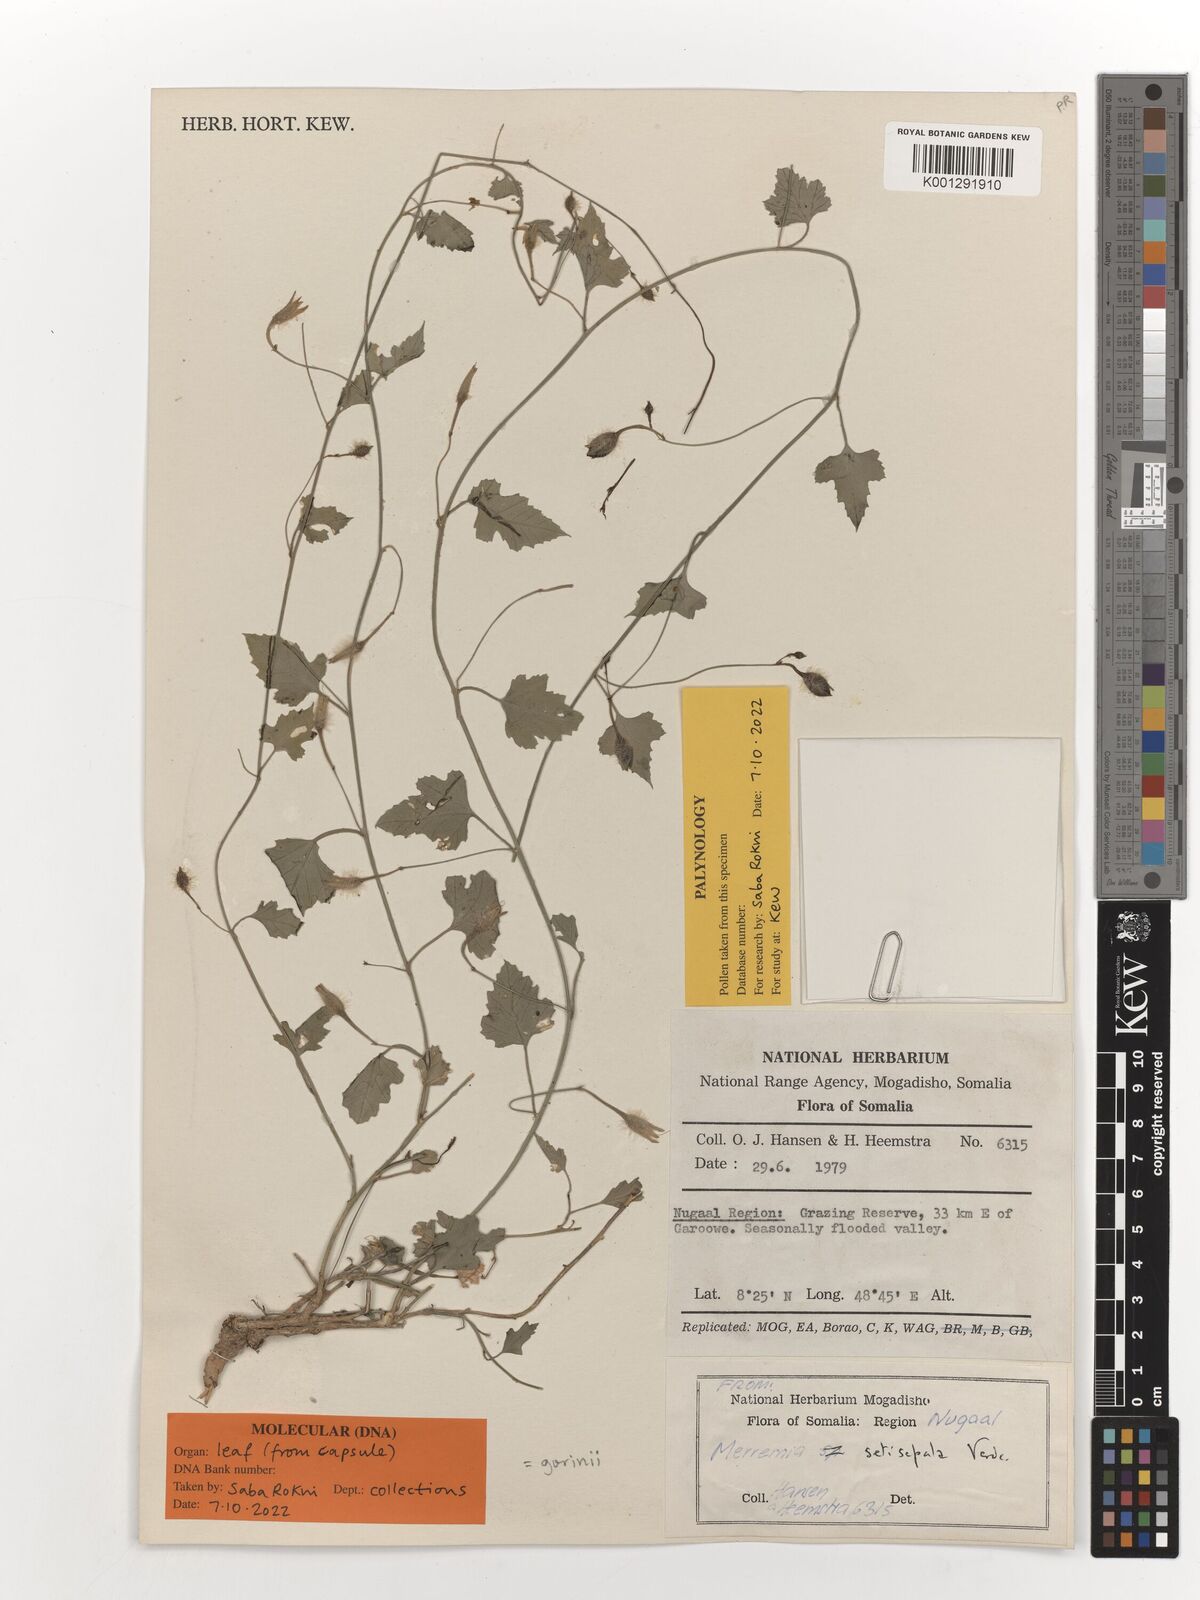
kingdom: Plantae
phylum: Tracheophyta
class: Magnoliopsida
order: Solanales
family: Convolvulaceae
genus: Merremia
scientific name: Merremia gorinii
